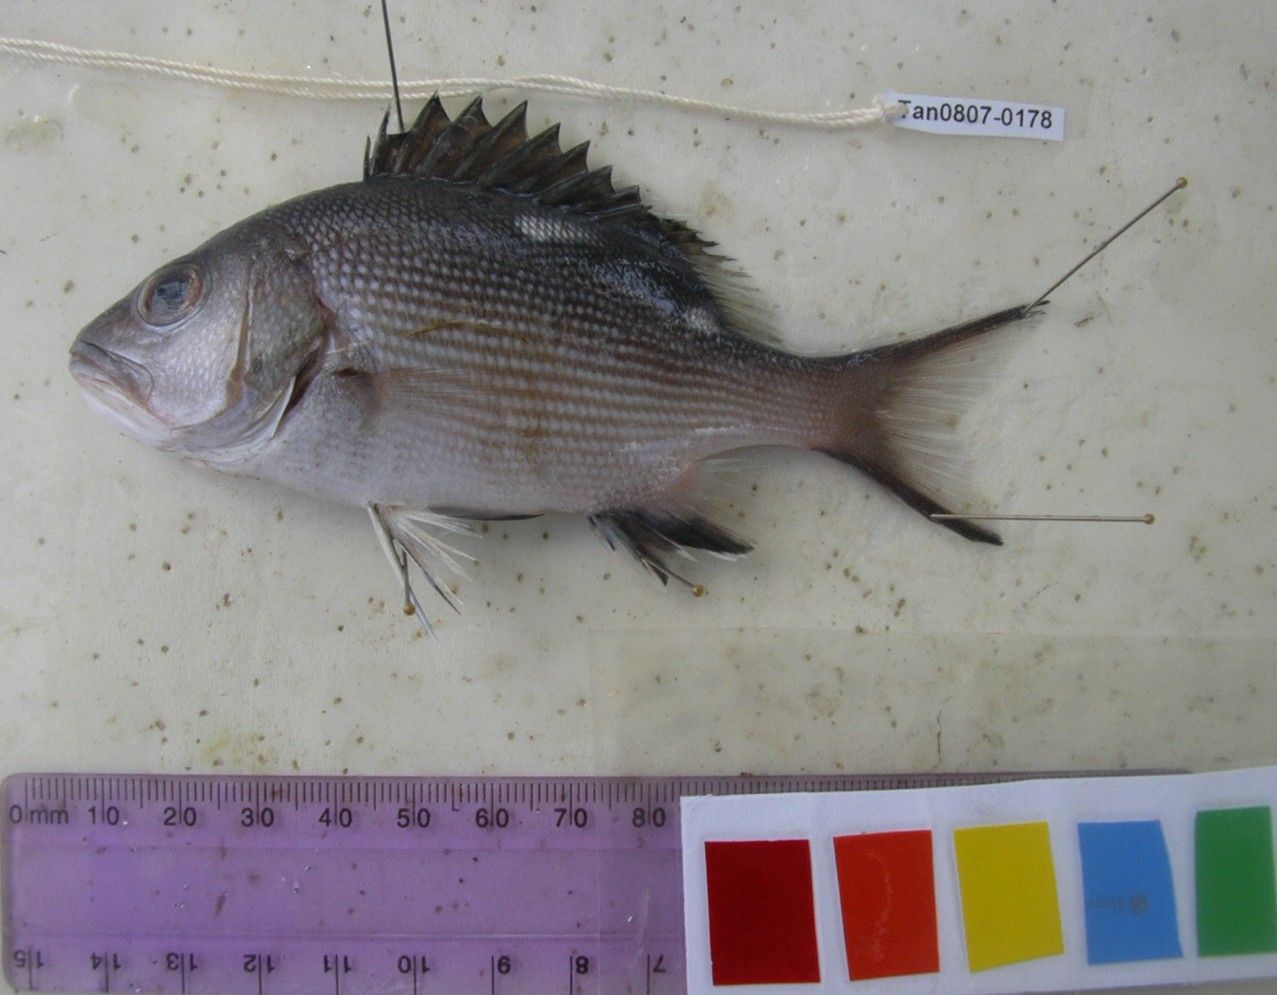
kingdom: Animalia
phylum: Chordata
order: Perciformes
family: Lutjanidae
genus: Lutjanus
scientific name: Lutjanus bohar
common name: Red bass
